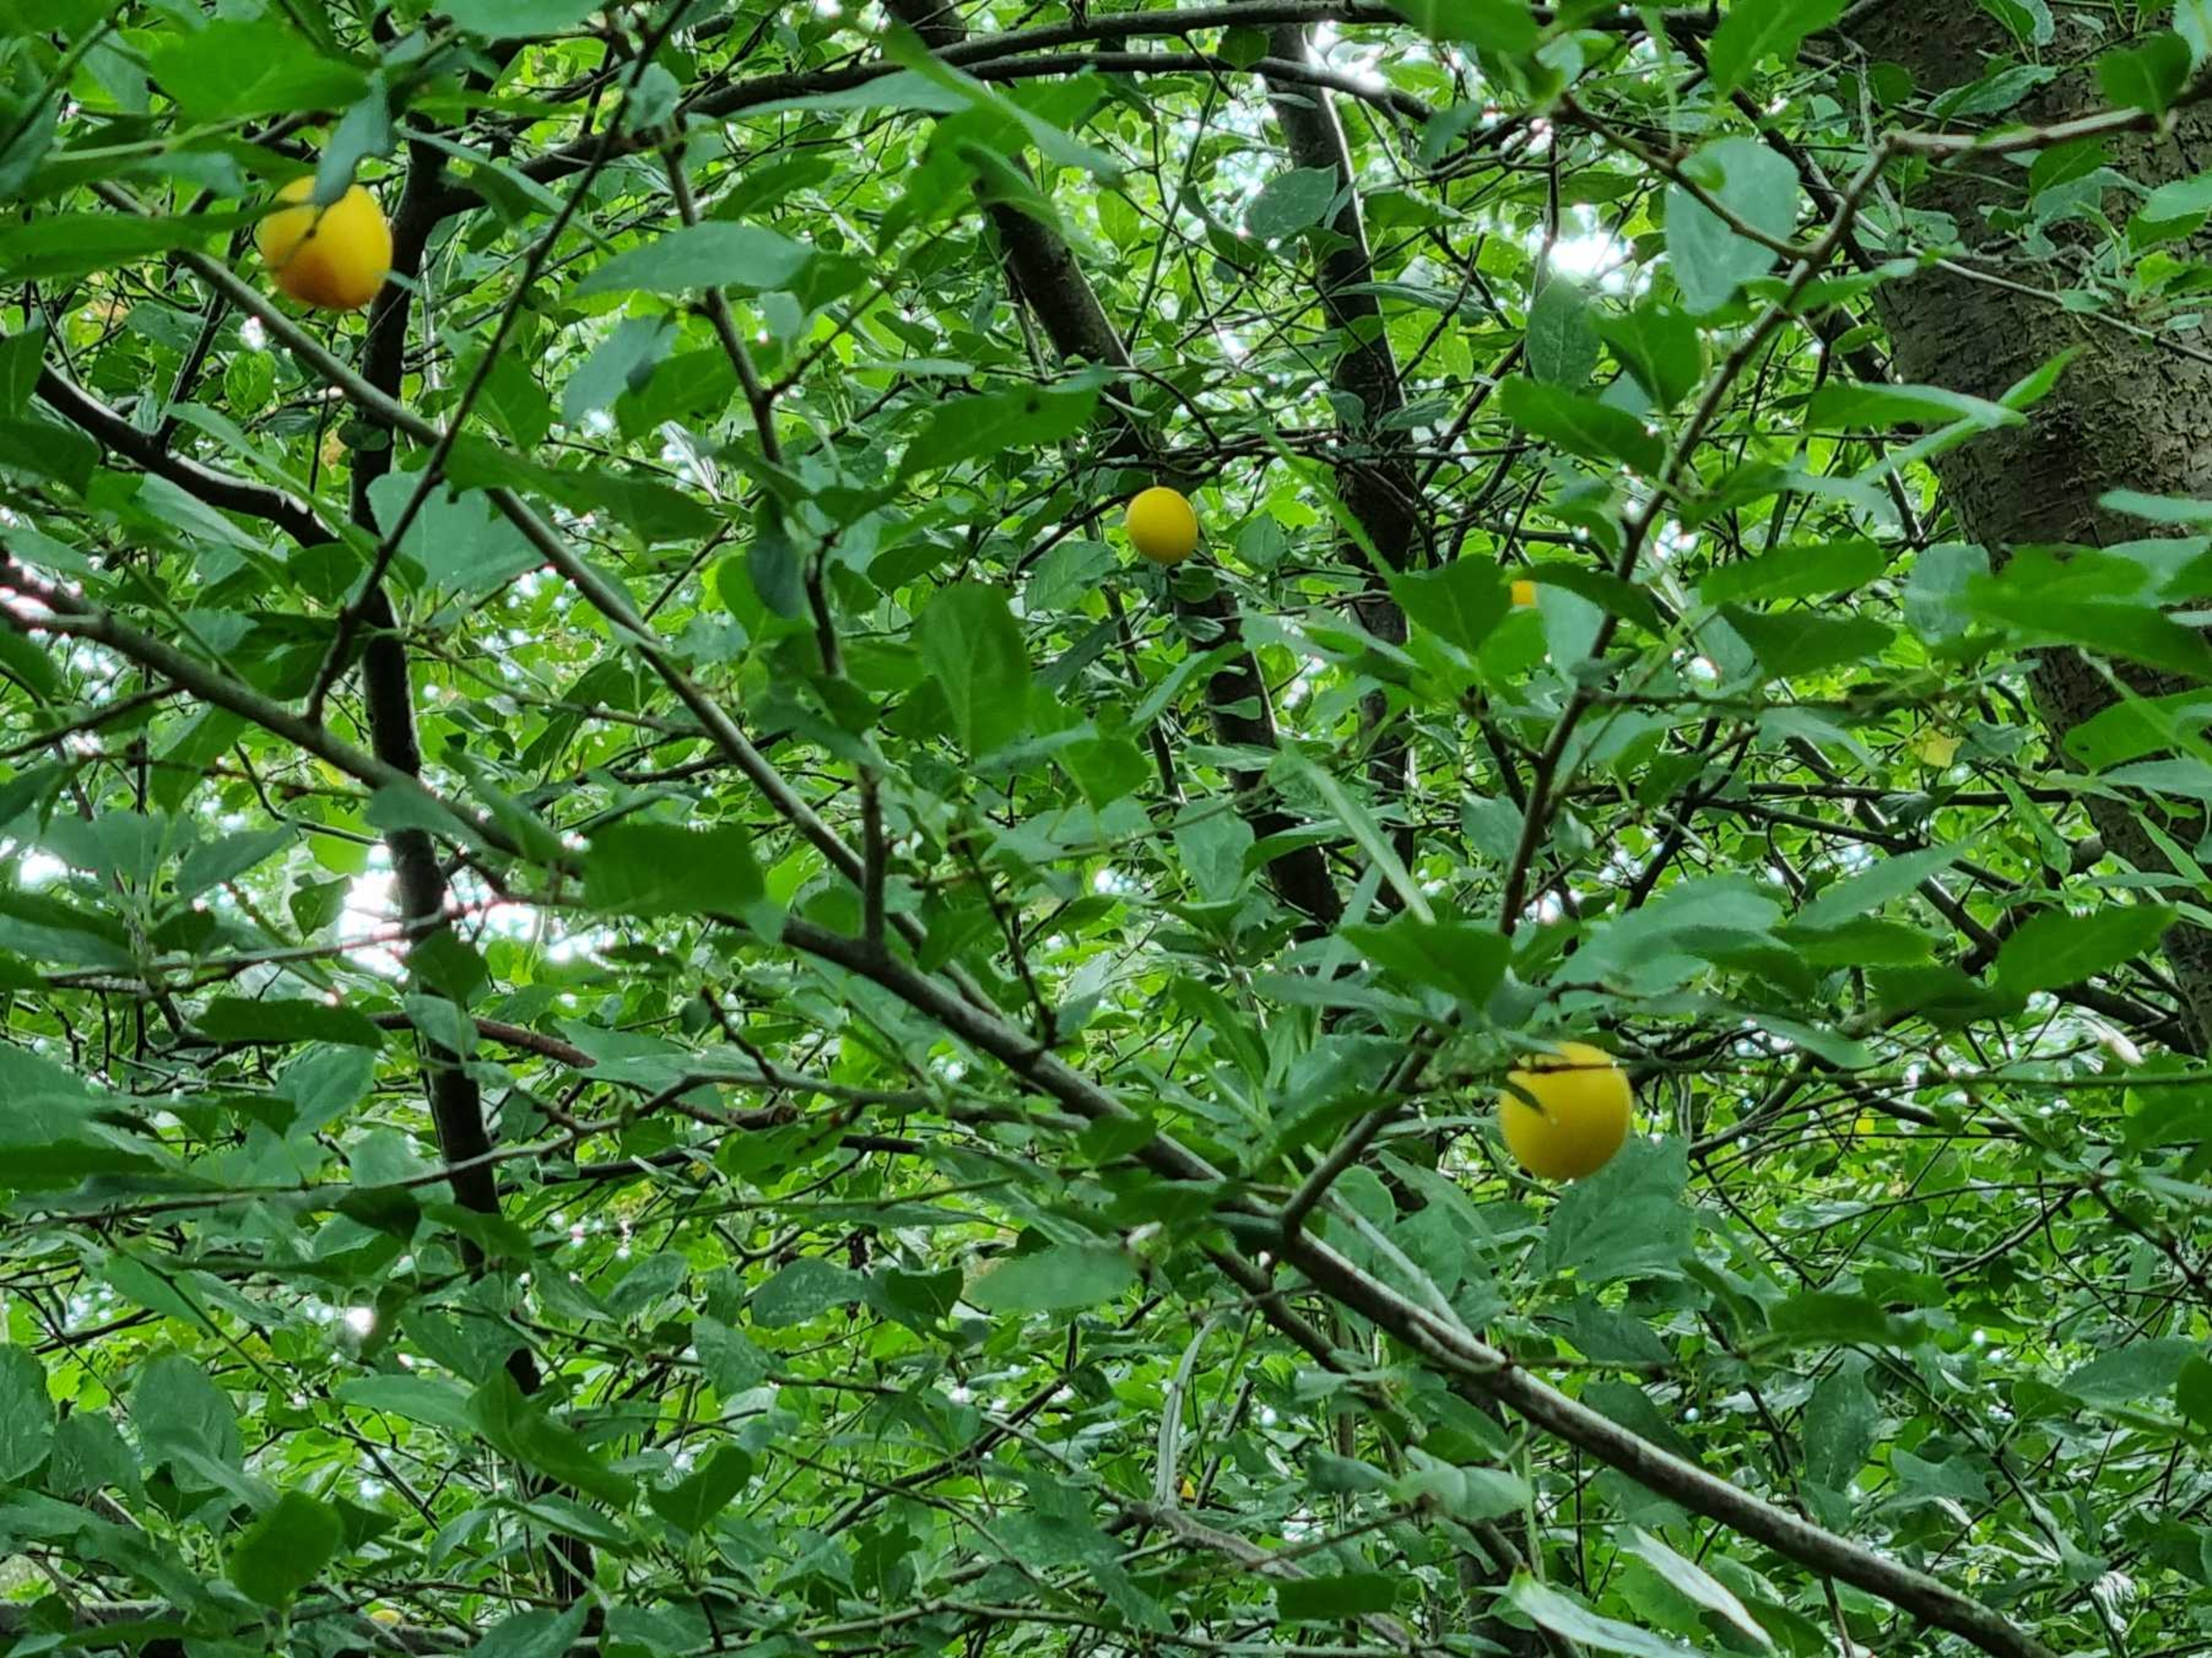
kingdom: Plantae
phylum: Tracheophyta
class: Magnoliopsida
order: Rosales
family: Rosaceae
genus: Prunus
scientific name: Prunus cerasifera
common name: Mirabel
